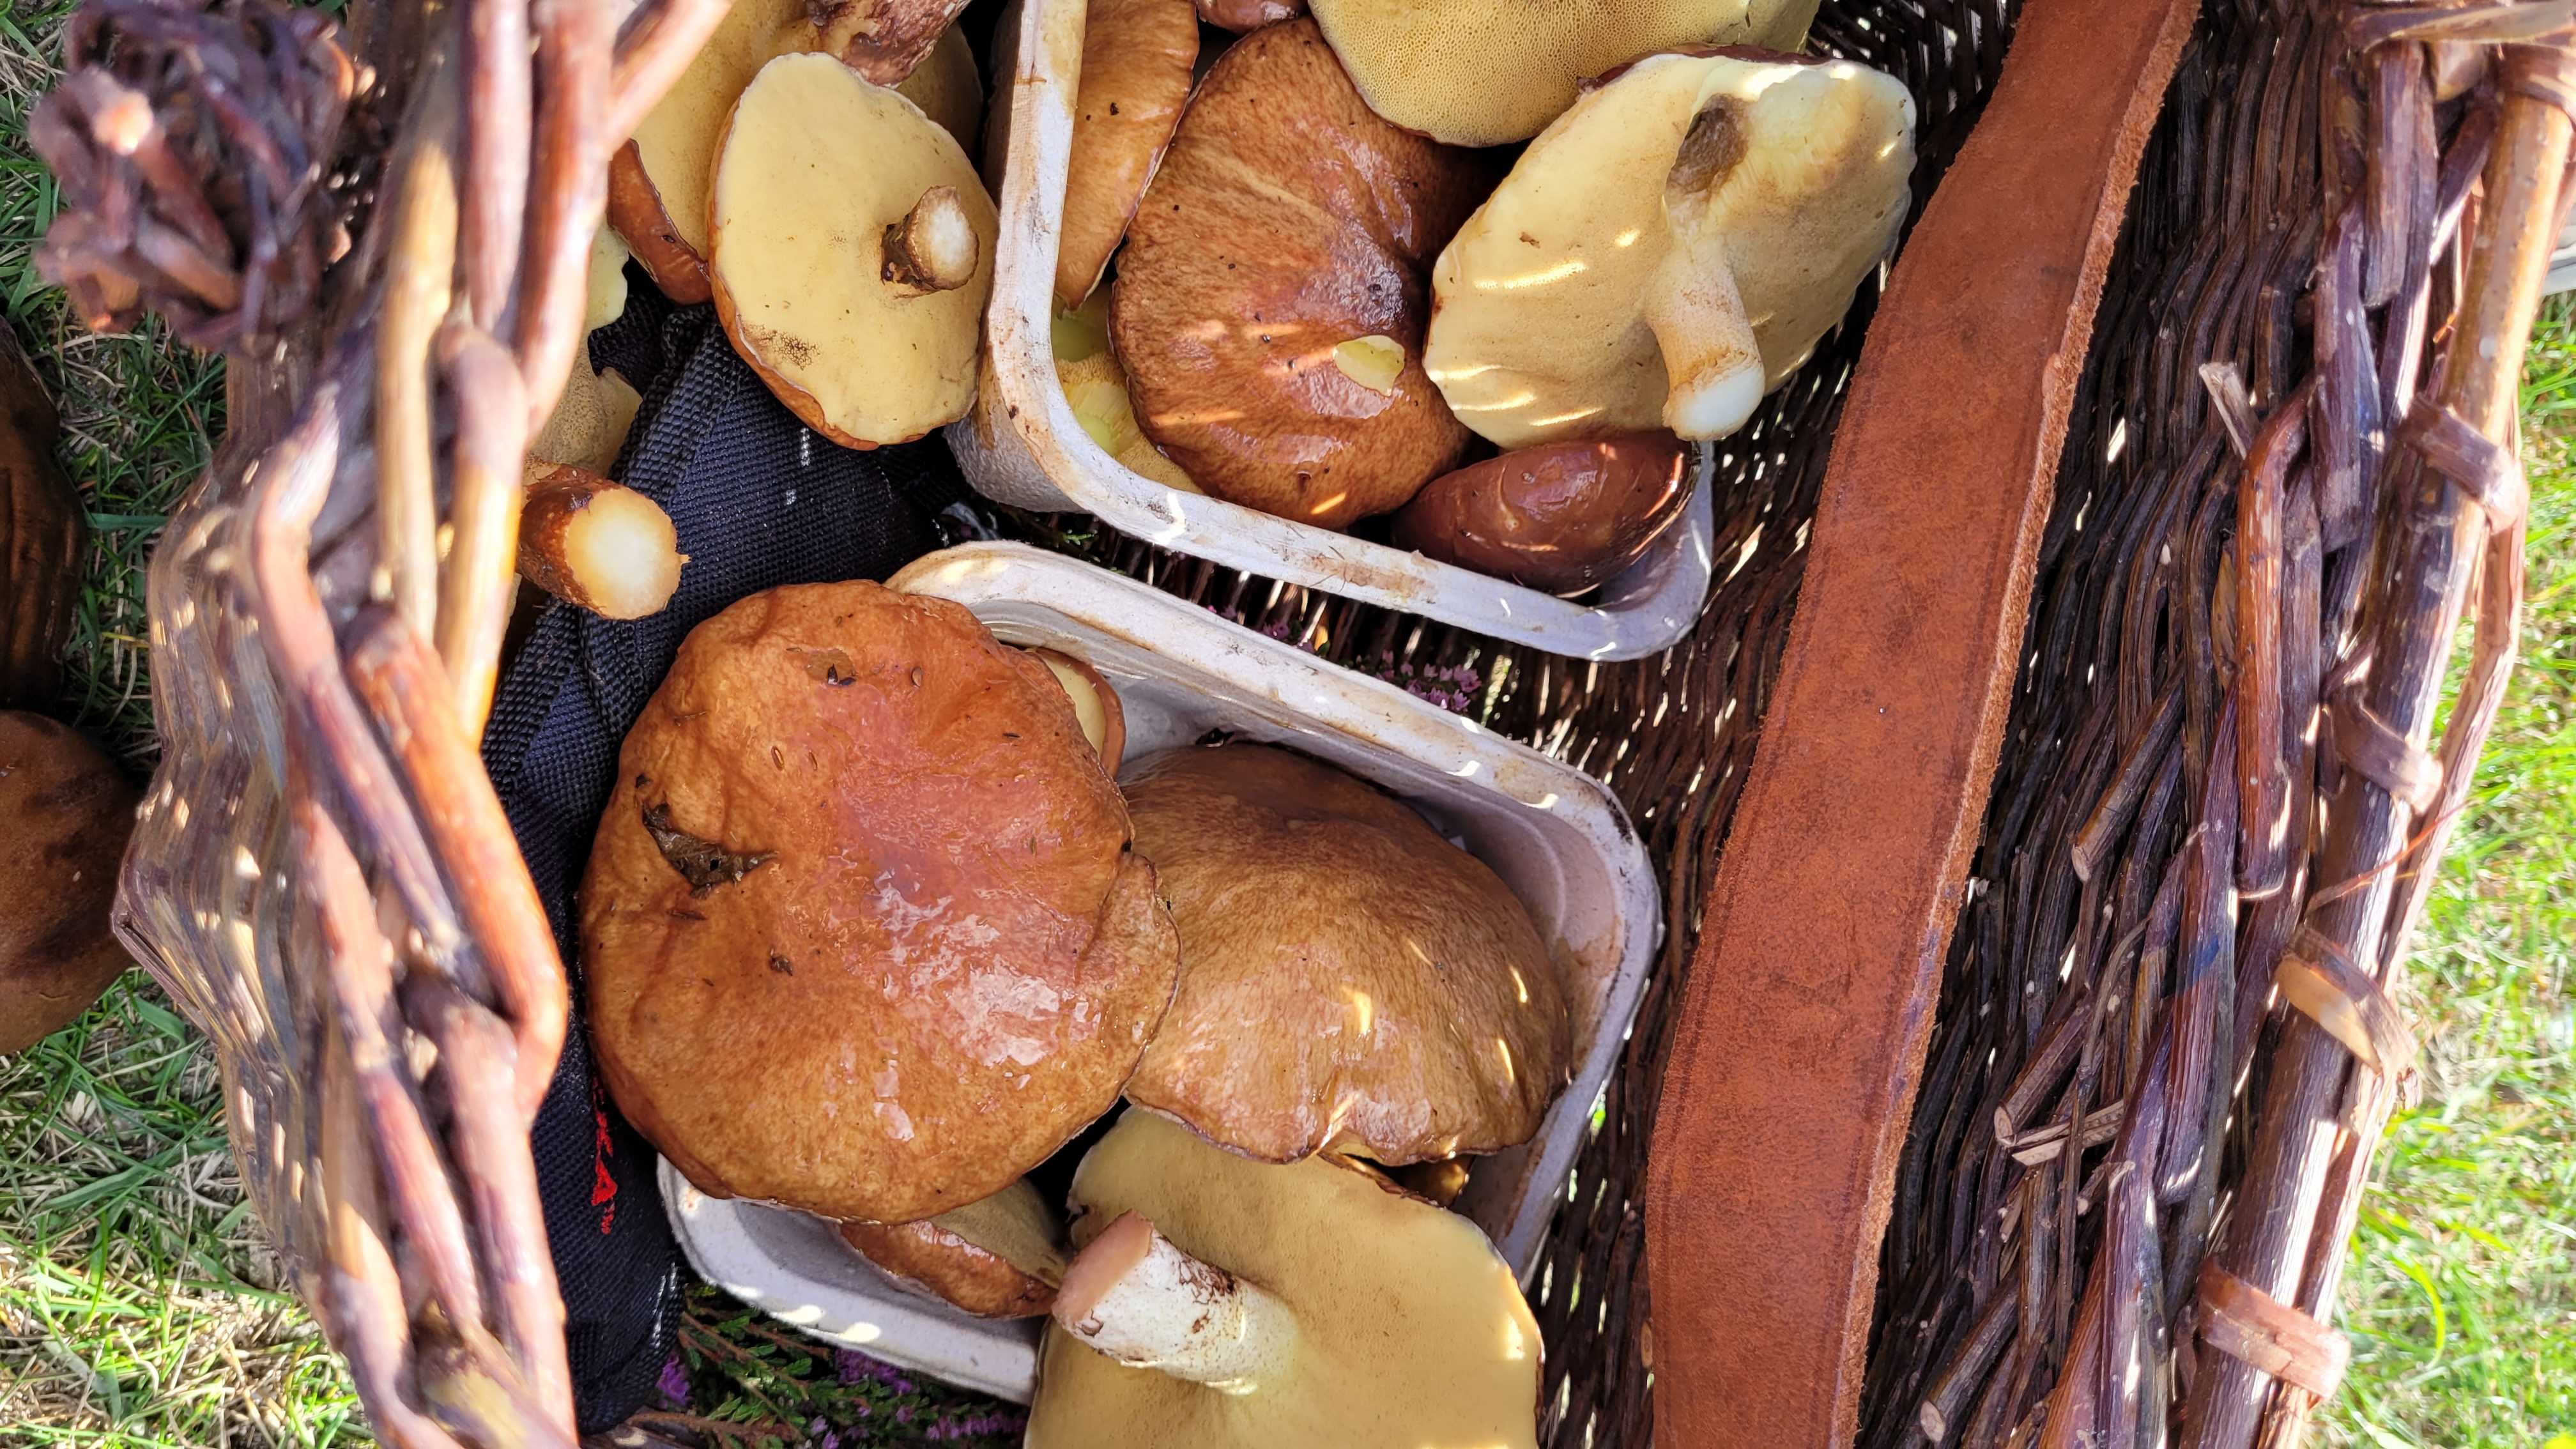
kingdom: Fungi
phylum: Basidiomycota
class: Agaricomycetes
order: Boletales
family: Suillaceae
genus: Suillus
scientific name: Suillus luteus
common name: brungul slimrørhat
